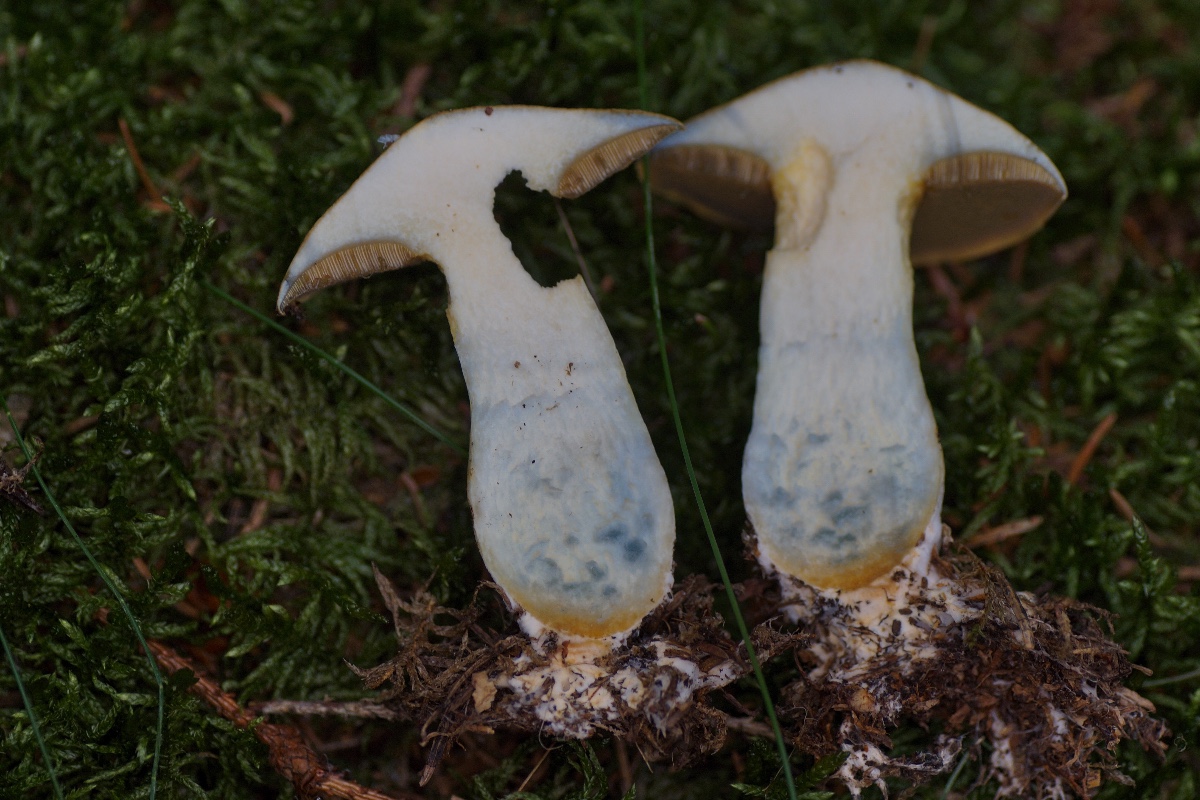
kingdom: Fungi
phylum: Basidiomycota
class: Agaricomycetes
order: Boletales
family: Suillaceae
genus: Suillus
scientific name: Suillus variegatus
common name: broget slimrørhat
